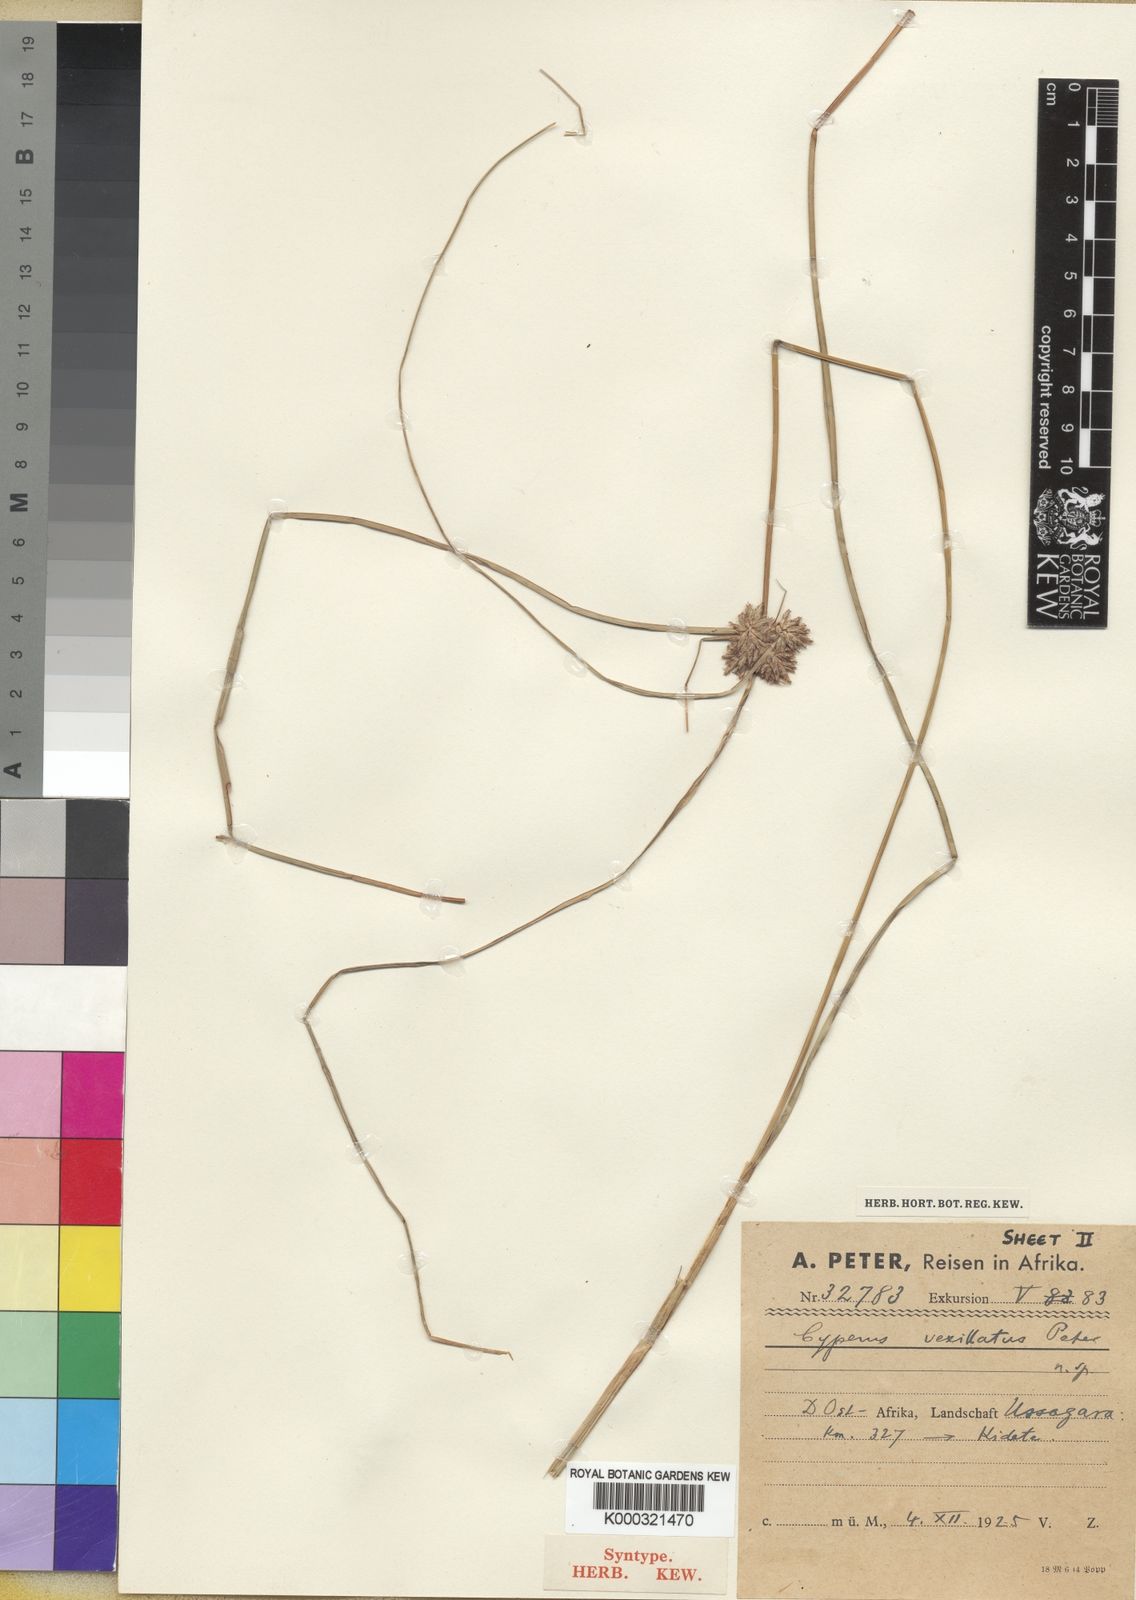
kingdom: Plantae
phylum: Tracheophyta
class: Liliopsida
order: Poales
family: Cyperaceae
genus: Cyperus
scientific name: Cyperus
